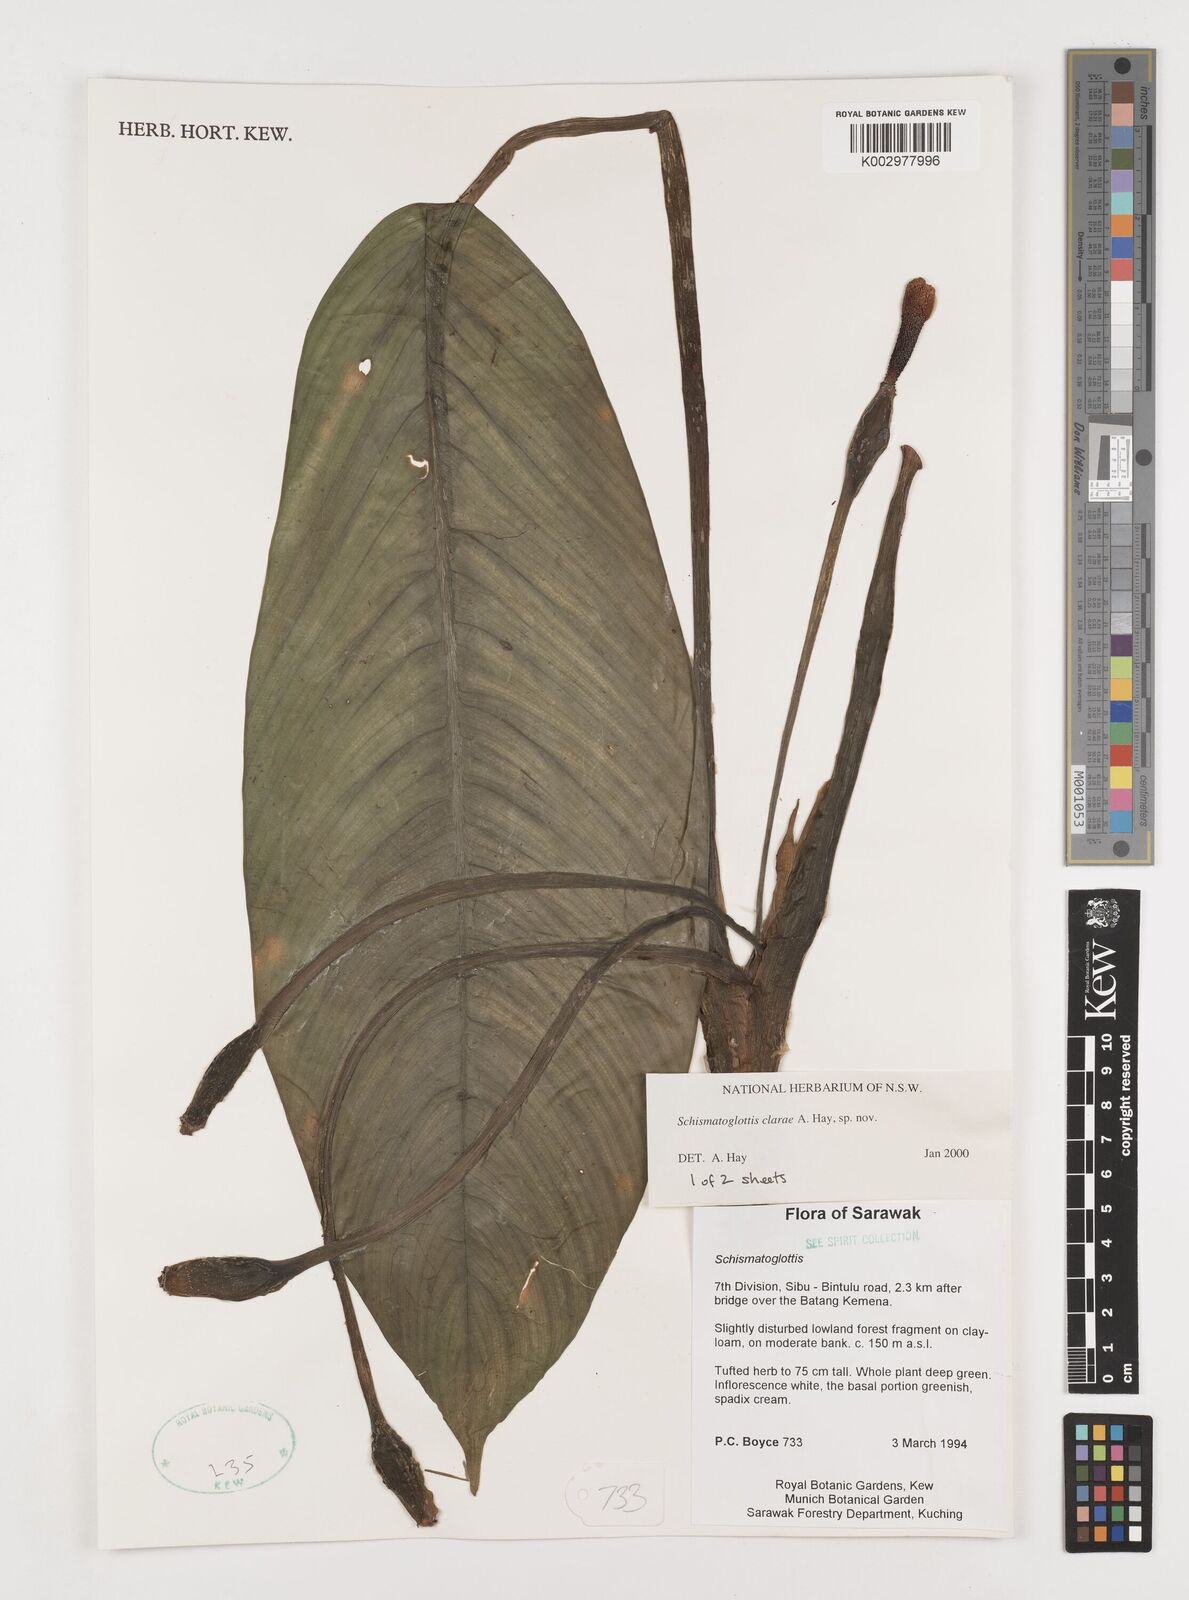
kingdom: Plantae
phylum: Tracheophyta
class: Liliopsida
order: Alismatales
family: Araceae
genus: Schismatoglottis
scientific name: Schismatoglottis clarae
